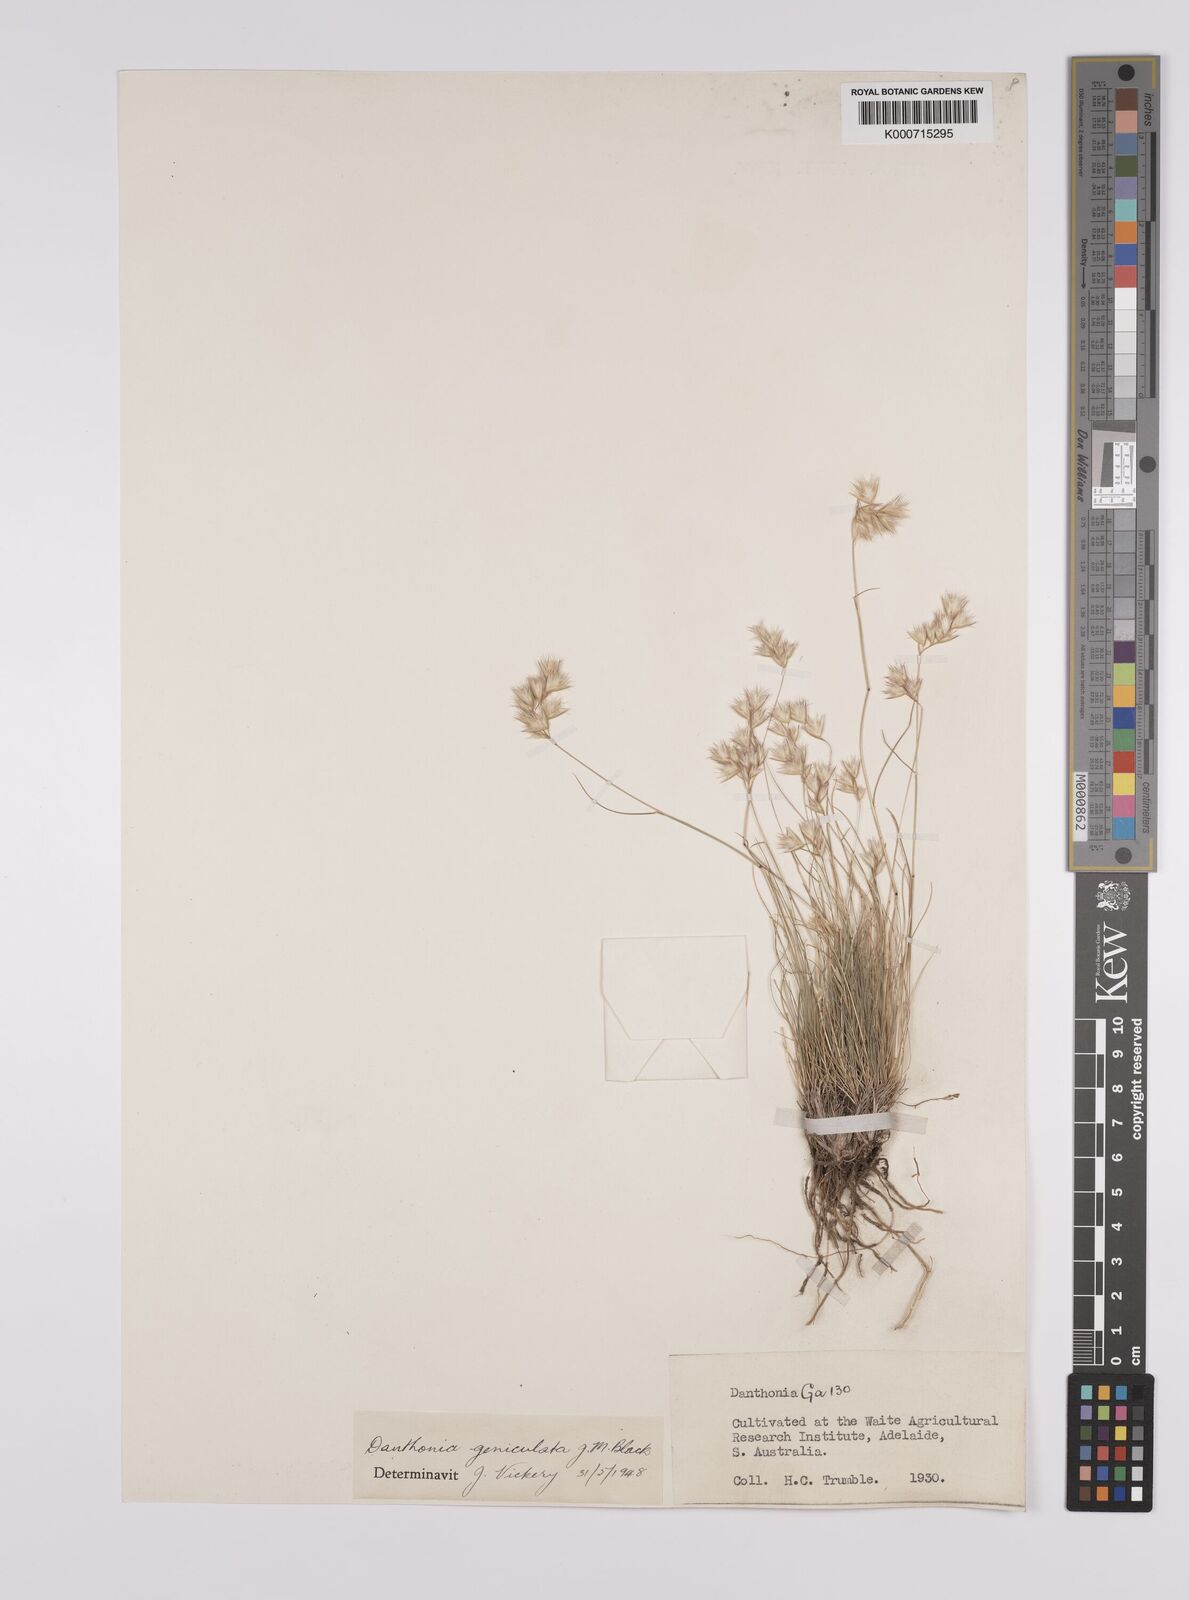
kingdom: Plantae
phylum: Tracheophyta
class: Liliopsida
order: Poales
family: Poaceae
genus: Rytidosperma
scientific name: Rytidosperma geniculatum
